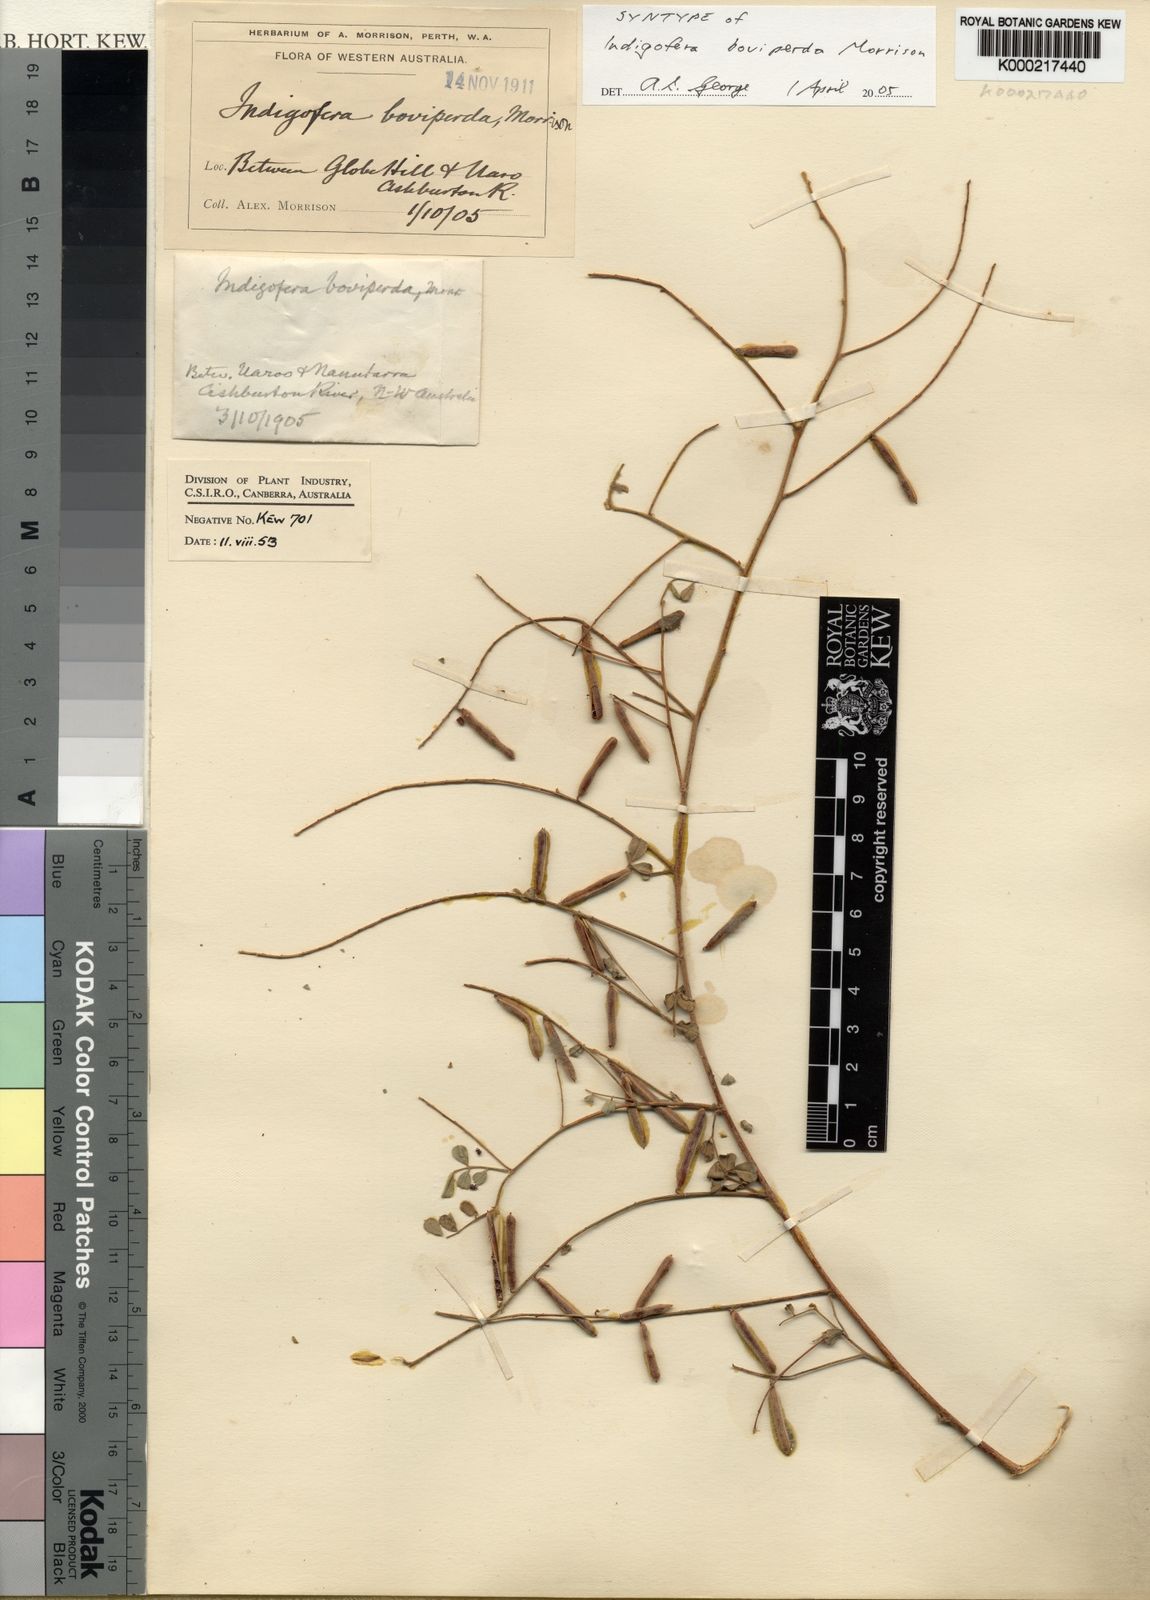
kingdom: Plantae
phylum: Tracheophyta
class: Magnoliopsida
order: Fabales
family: Fabaceae
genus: Indigofera
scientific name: Indigofera boviperda
